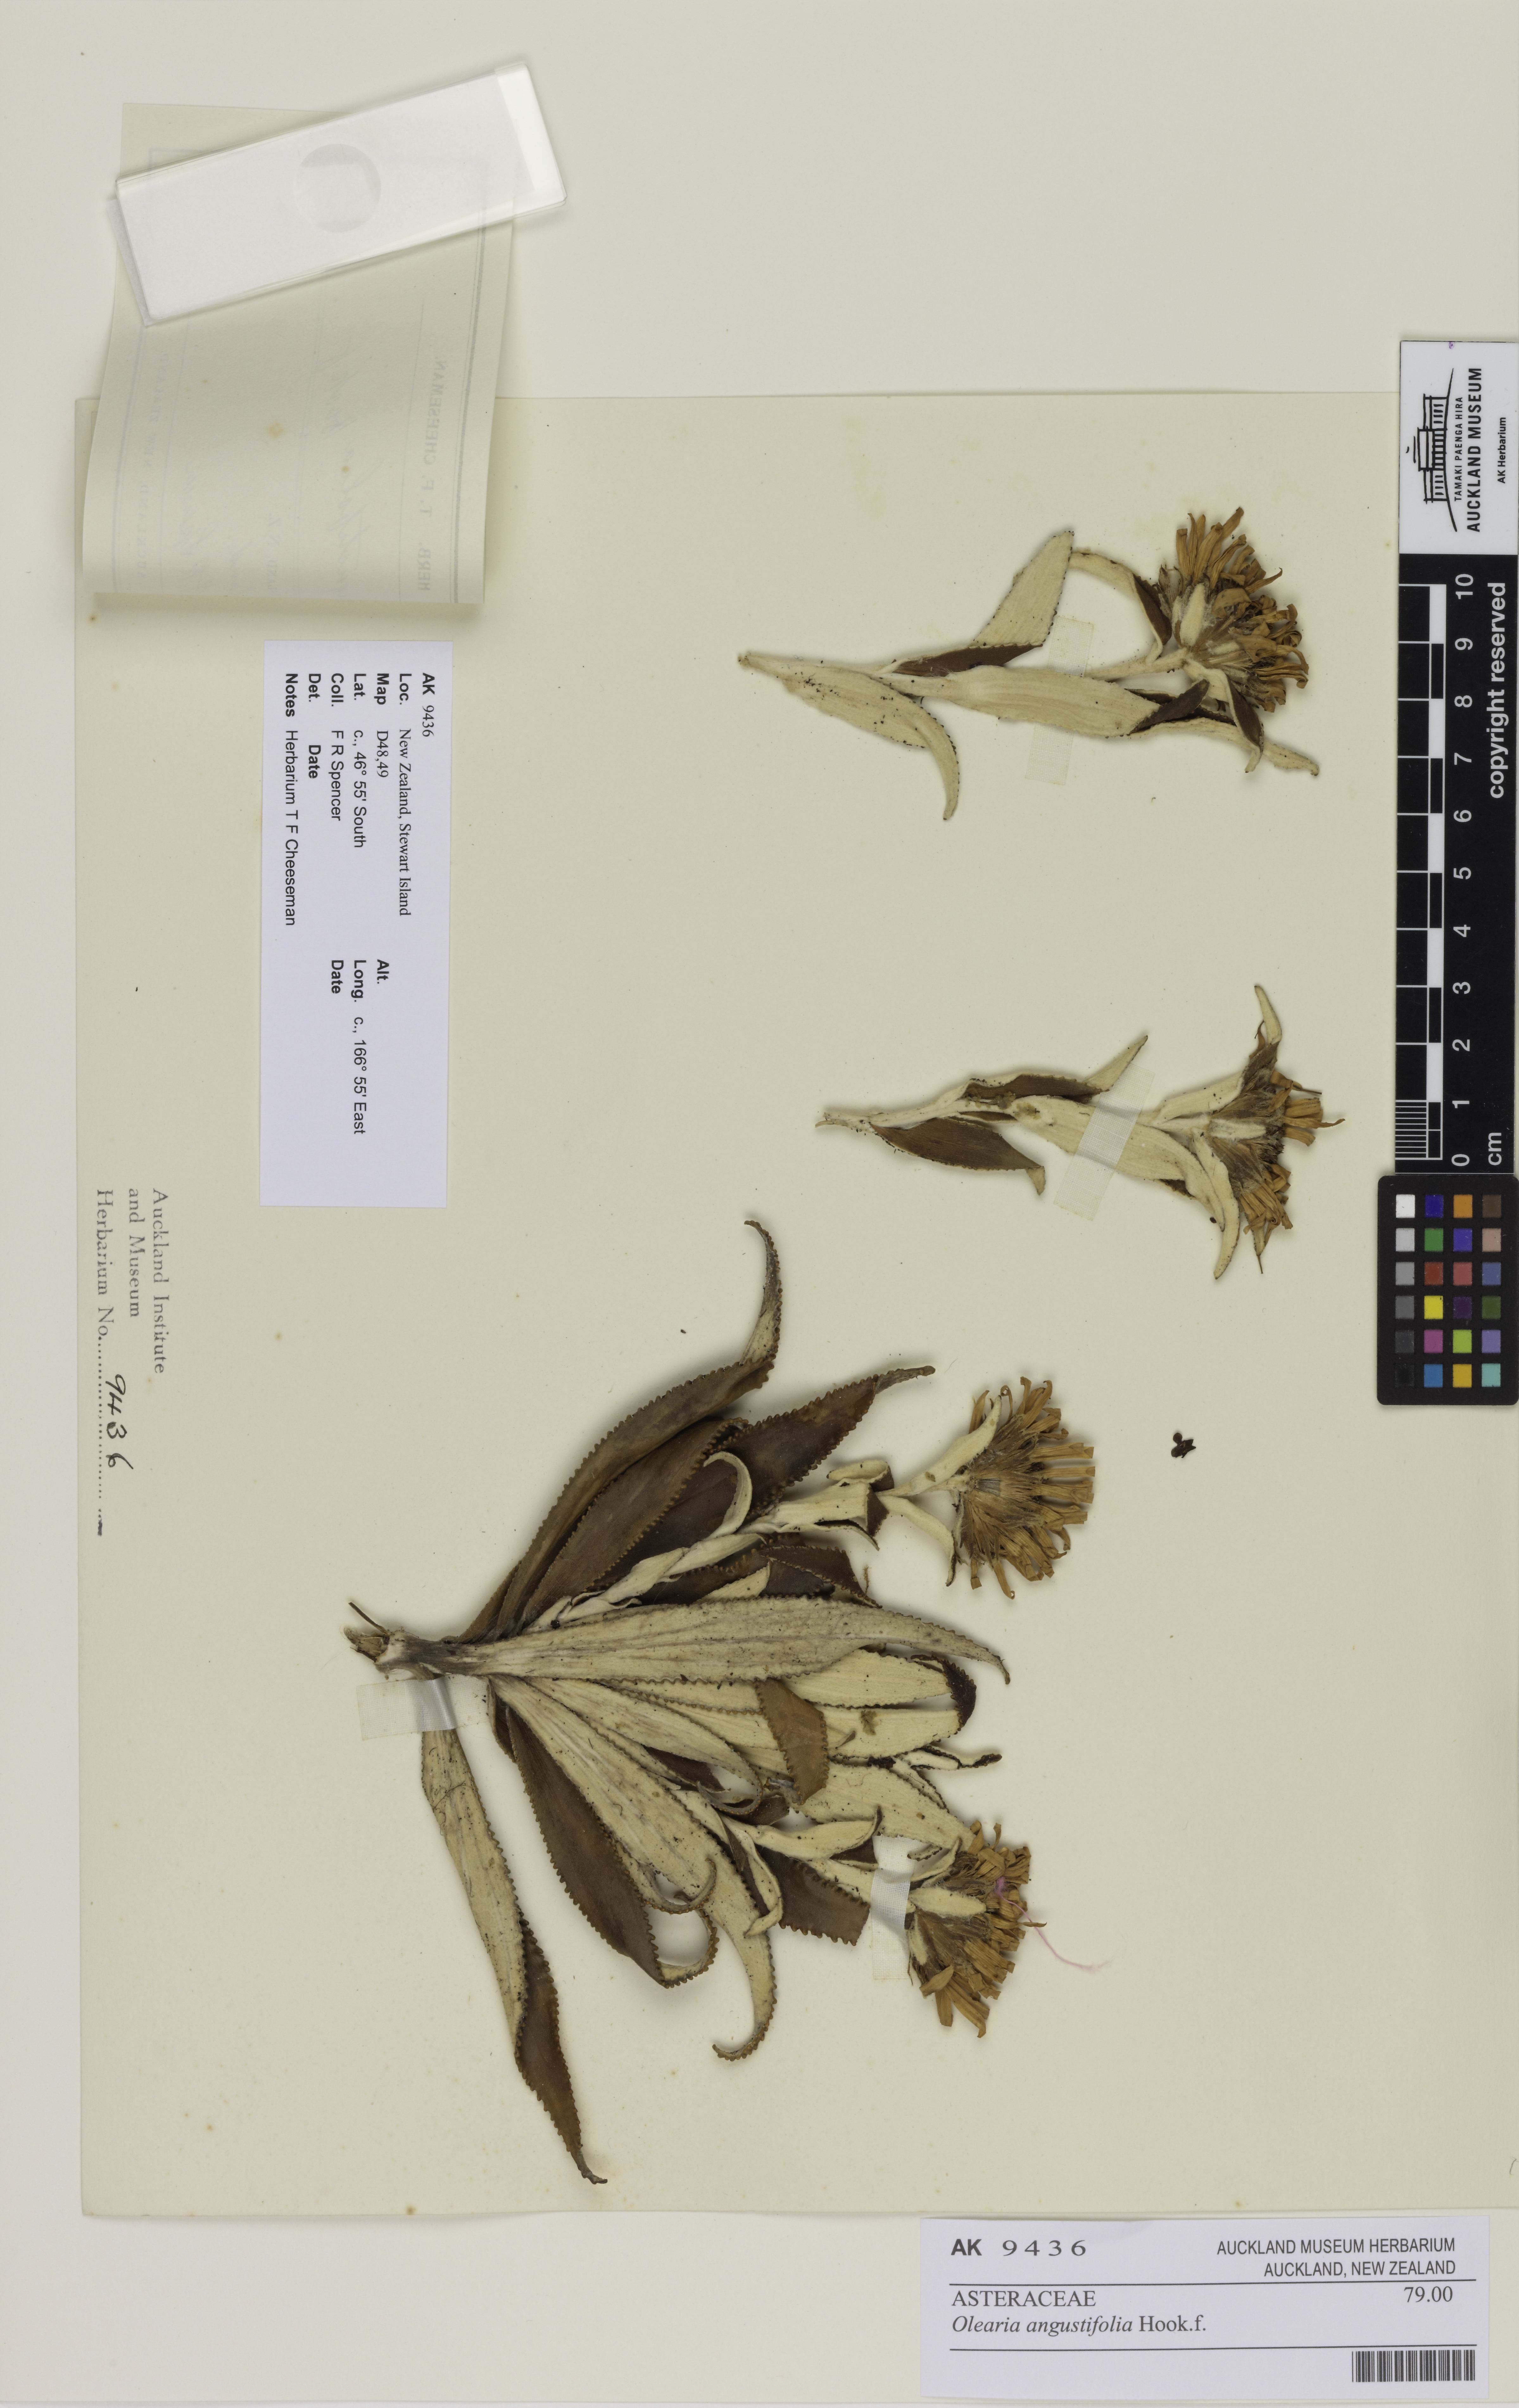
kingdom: Plantae
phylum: Tracheophyta
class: Magnoliopsida
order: Asterales
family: Asteraceae
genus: Macrolearia
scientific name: Macrolearia angustifolia
